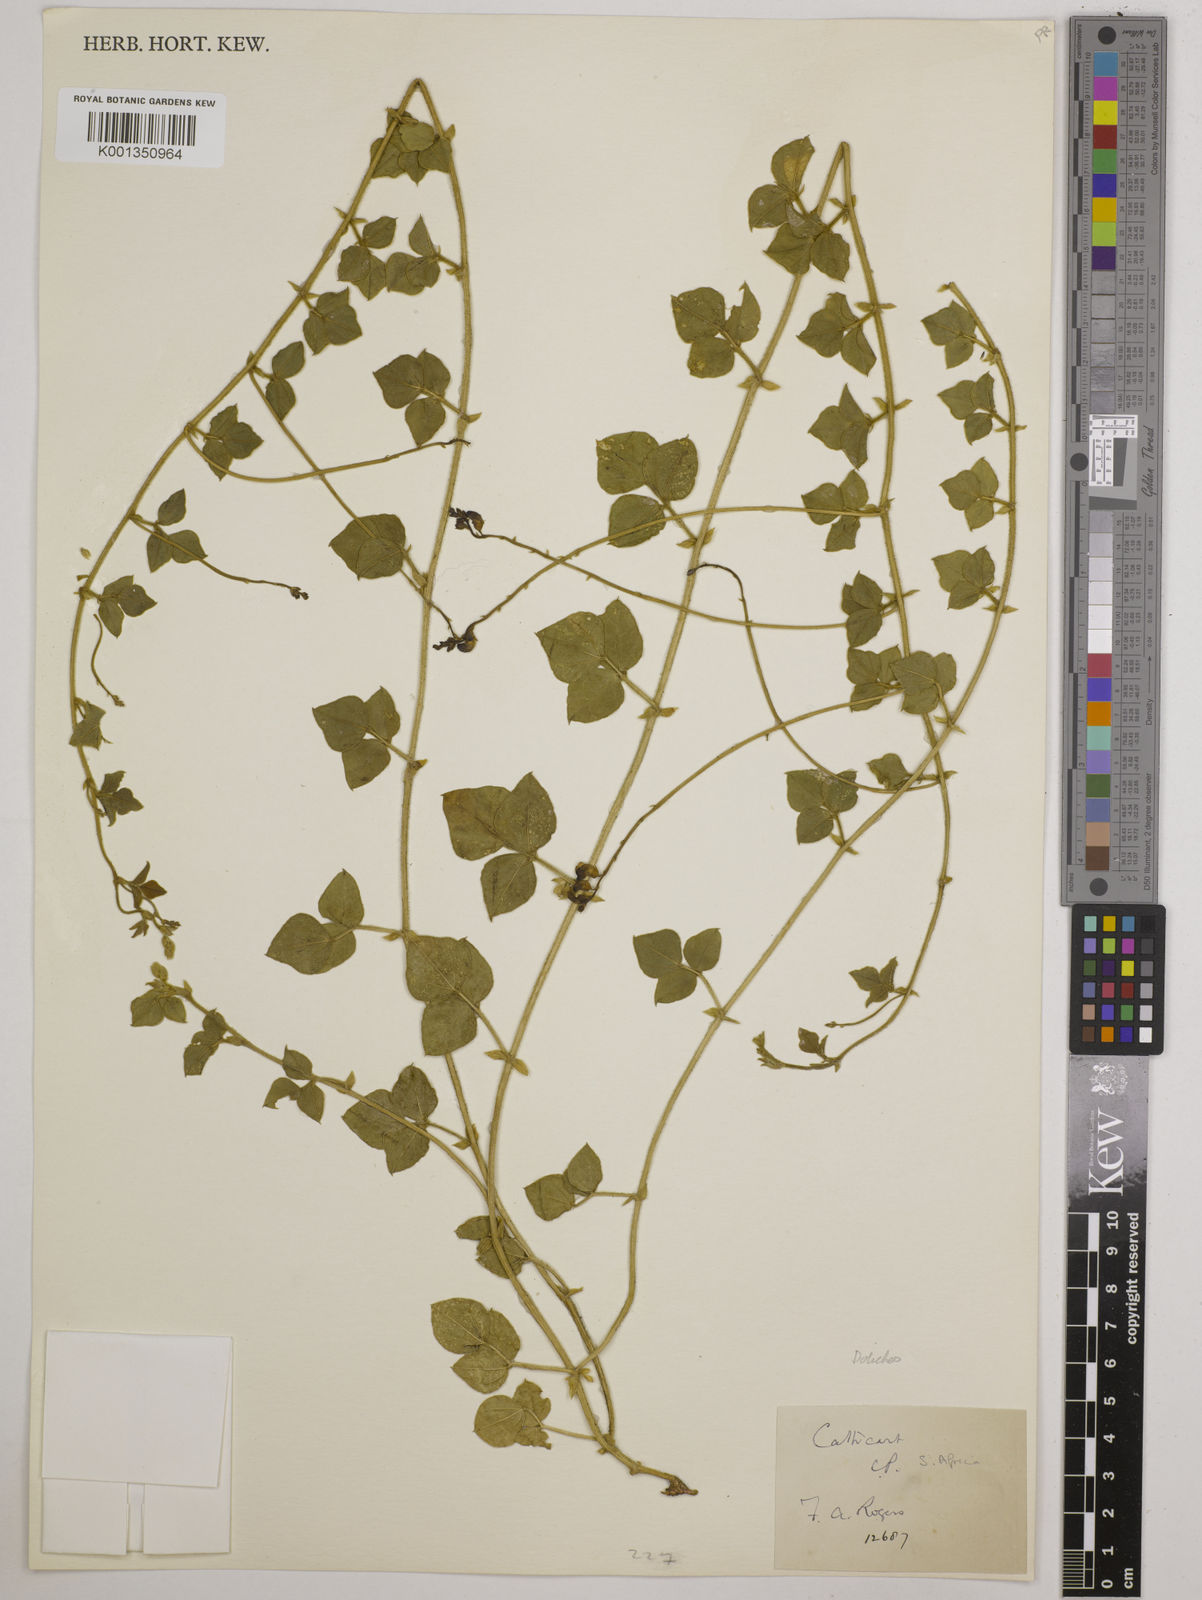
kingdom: Plantae
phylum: Tracheophyta
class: Magnoliopsida
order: Fabales
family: Fabaceae
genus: Dolichos
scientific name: Dolichos
